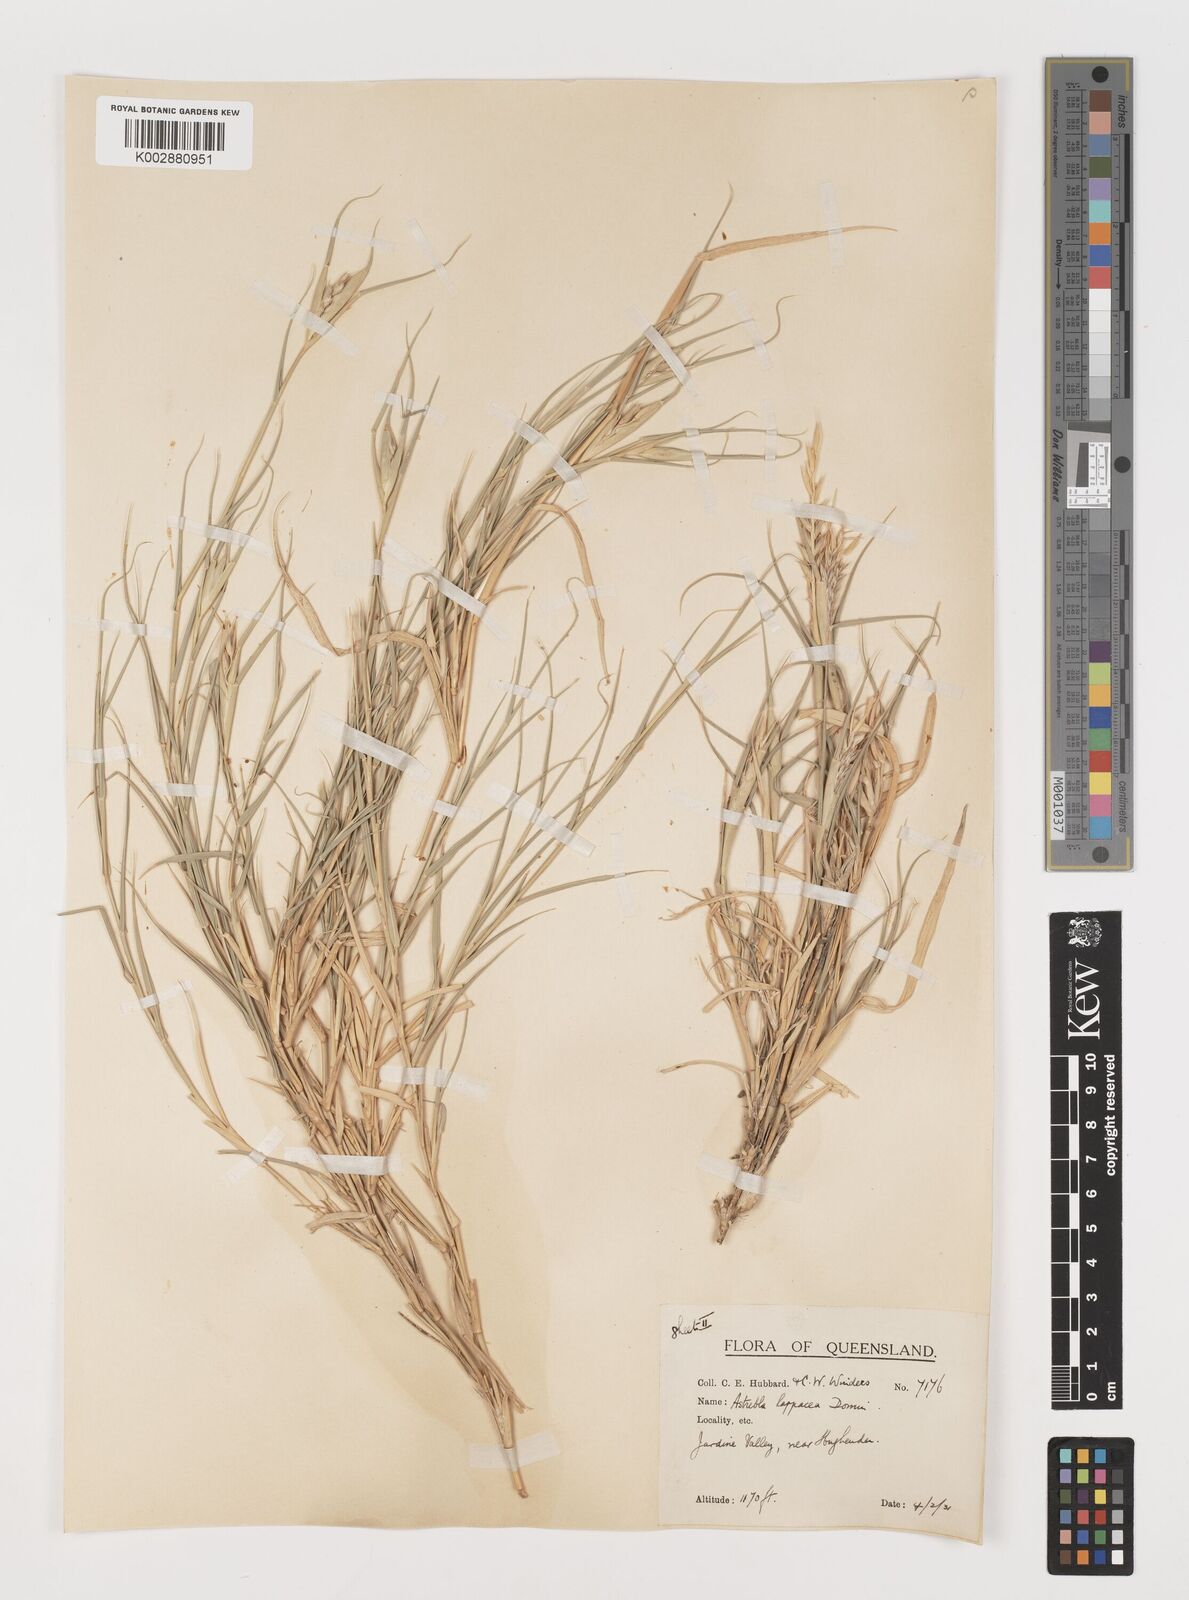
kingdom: Plantae
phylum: Tracheophyta
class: Liliopsida
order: Poales
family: Poaceae
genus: Astrebla
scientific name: Astrebla lappacea
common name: Curly mitchell grass
